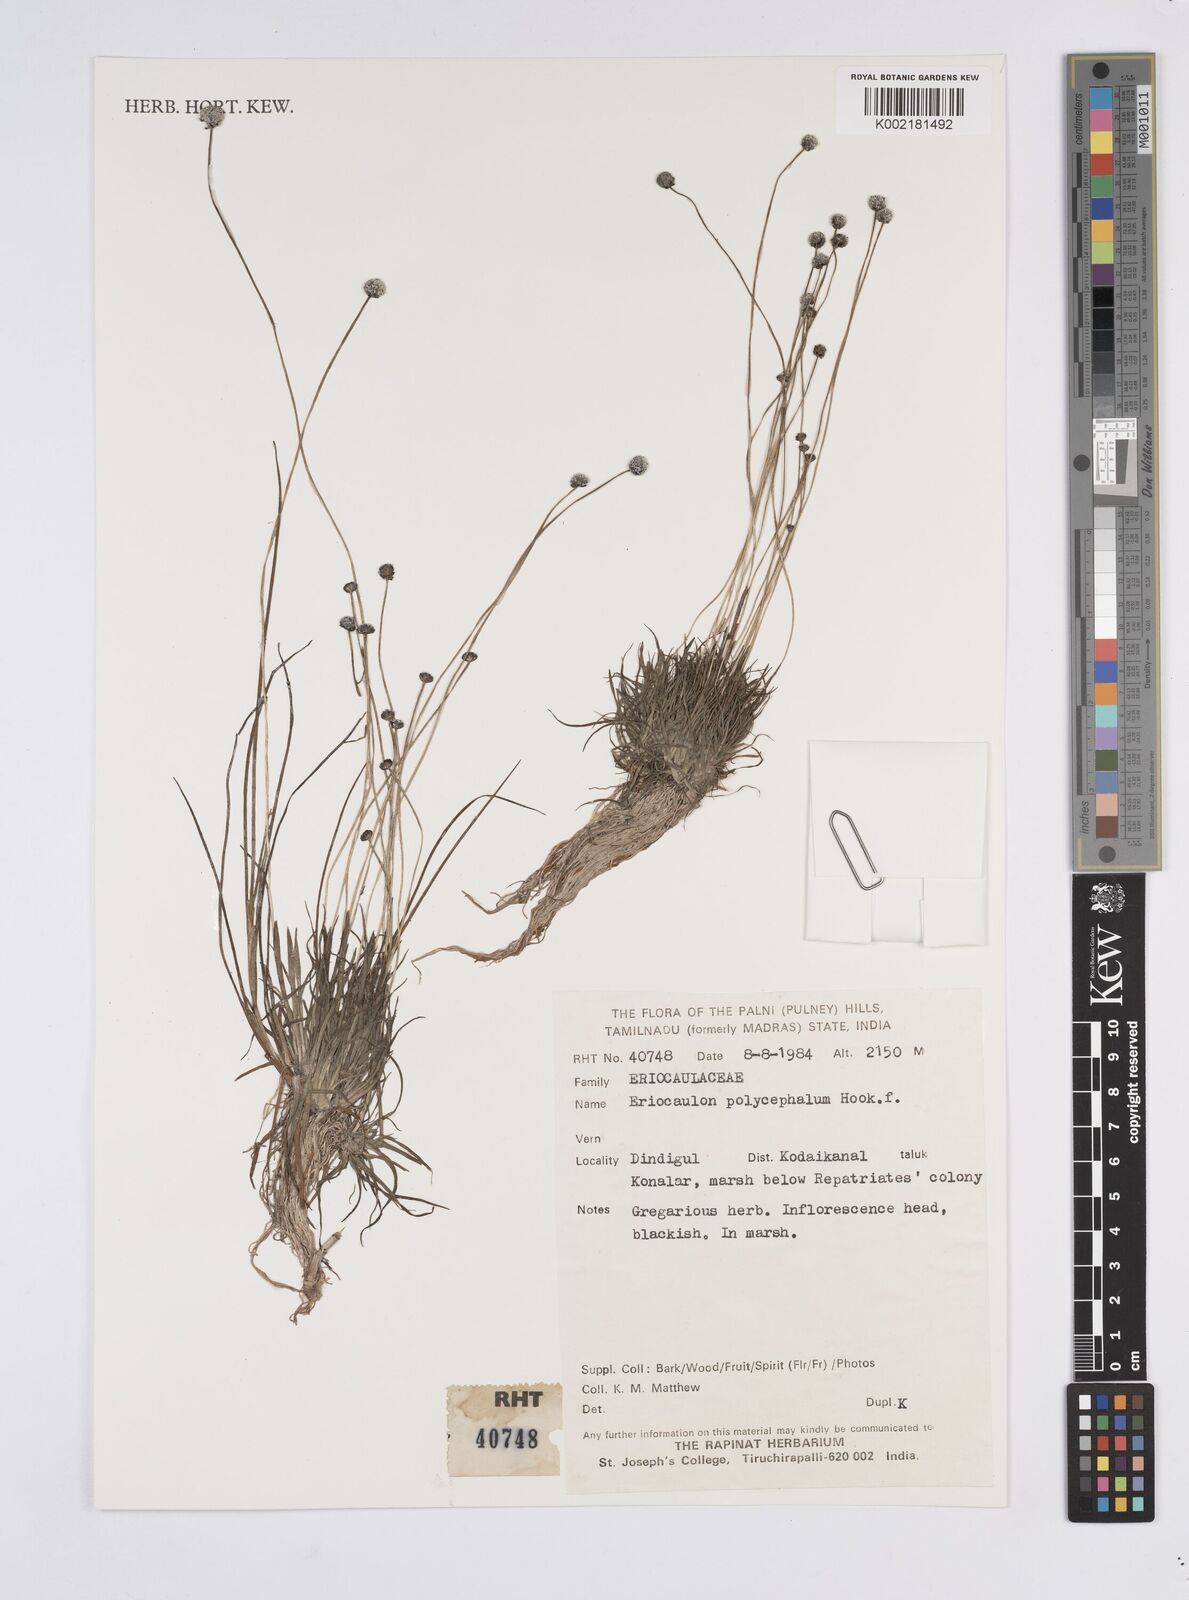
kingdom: Plantae
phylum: Tracheophyta
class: Liliopsida
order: Poales
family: Eriocaulaceae
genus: Eriocaulon
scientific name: Eriocaulon longicuspe
